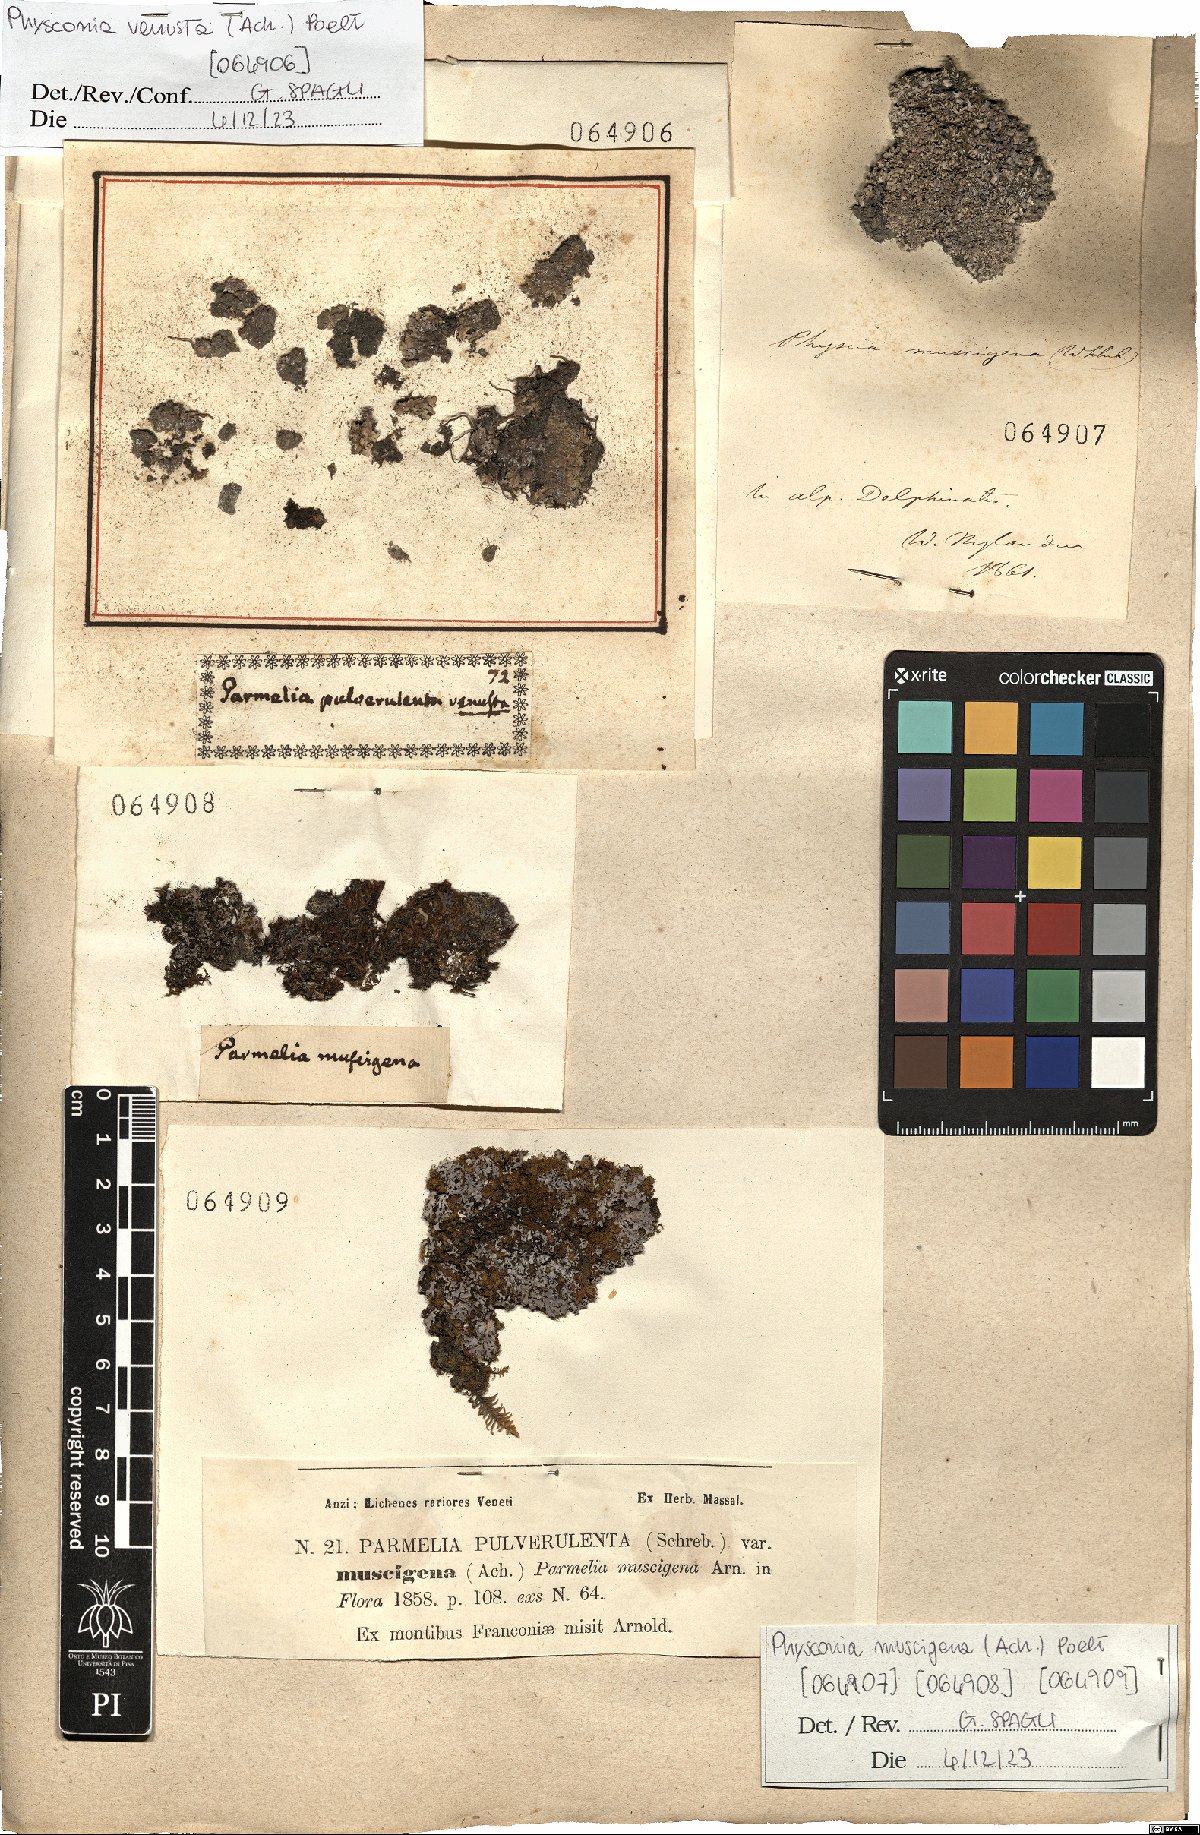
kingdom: Fungi
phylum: Ascomycota
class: Lecanoromycetes
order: Caliciales
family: Physciaceae
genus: Physconia
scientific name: Physconia muscigena
